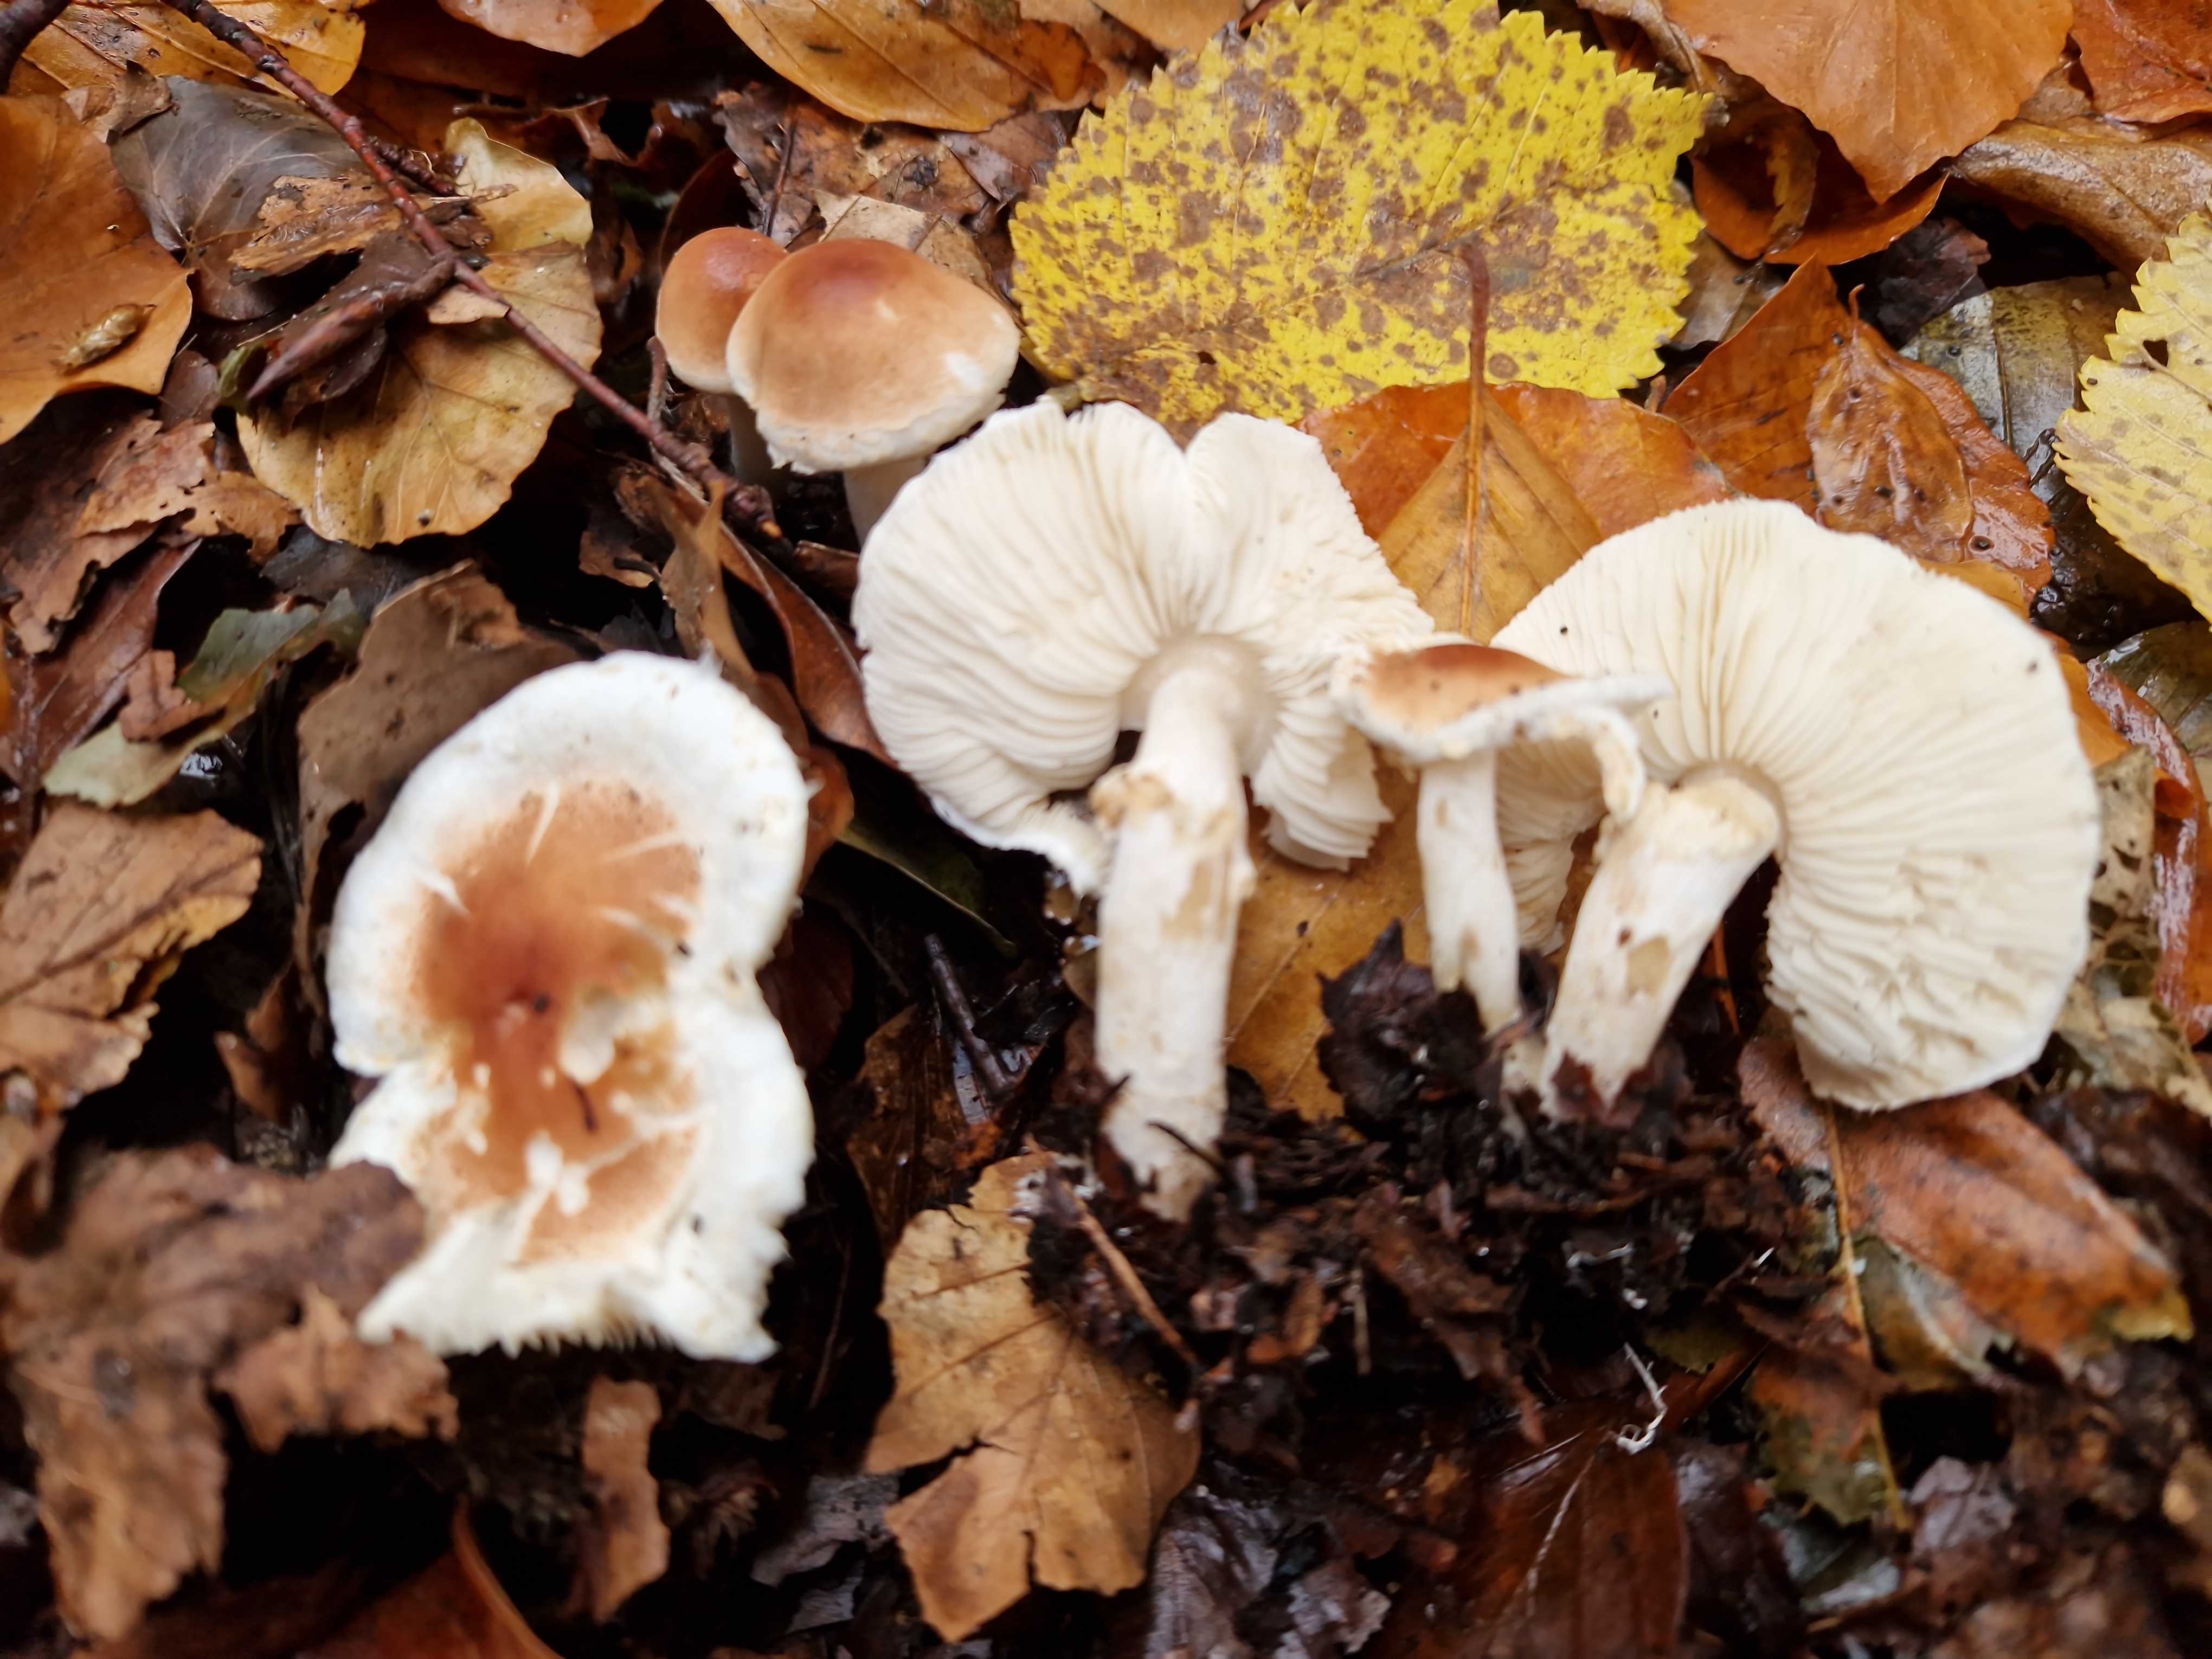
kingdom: Fungi
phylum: Basidiomycota
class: Agaricomycetes
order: Agaricales
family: Agaricaceae
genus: Lepiota
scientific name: Lepiota cristata
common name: stinkende parasolhat
